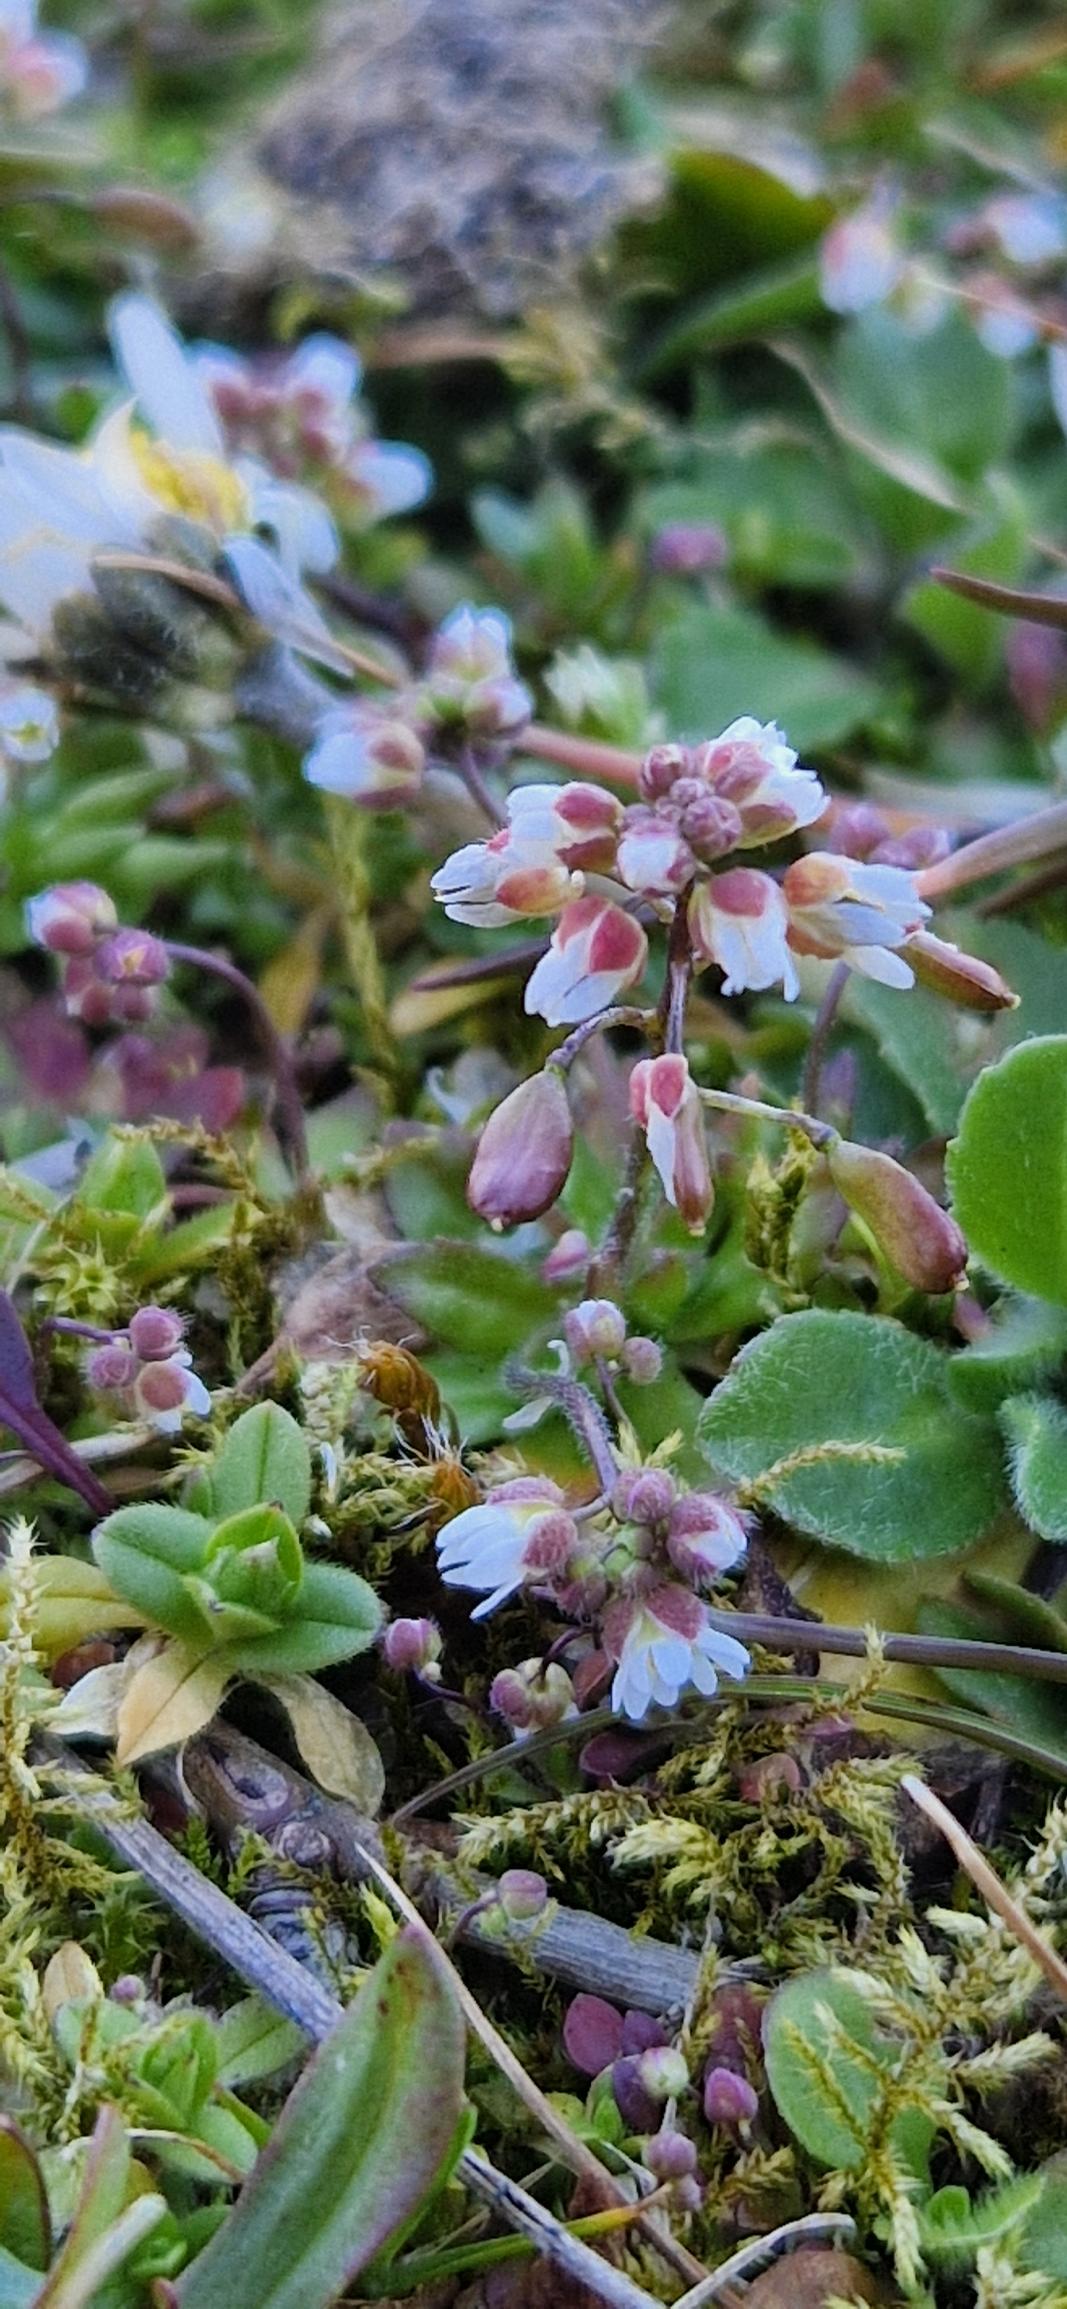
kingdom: Plantae
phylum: Tracheophyta
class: Magnoliopsida
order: Brassicales
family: Brassicaceae
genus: Draba
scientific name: Draba verna
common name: Vår-gæslingeblomst
